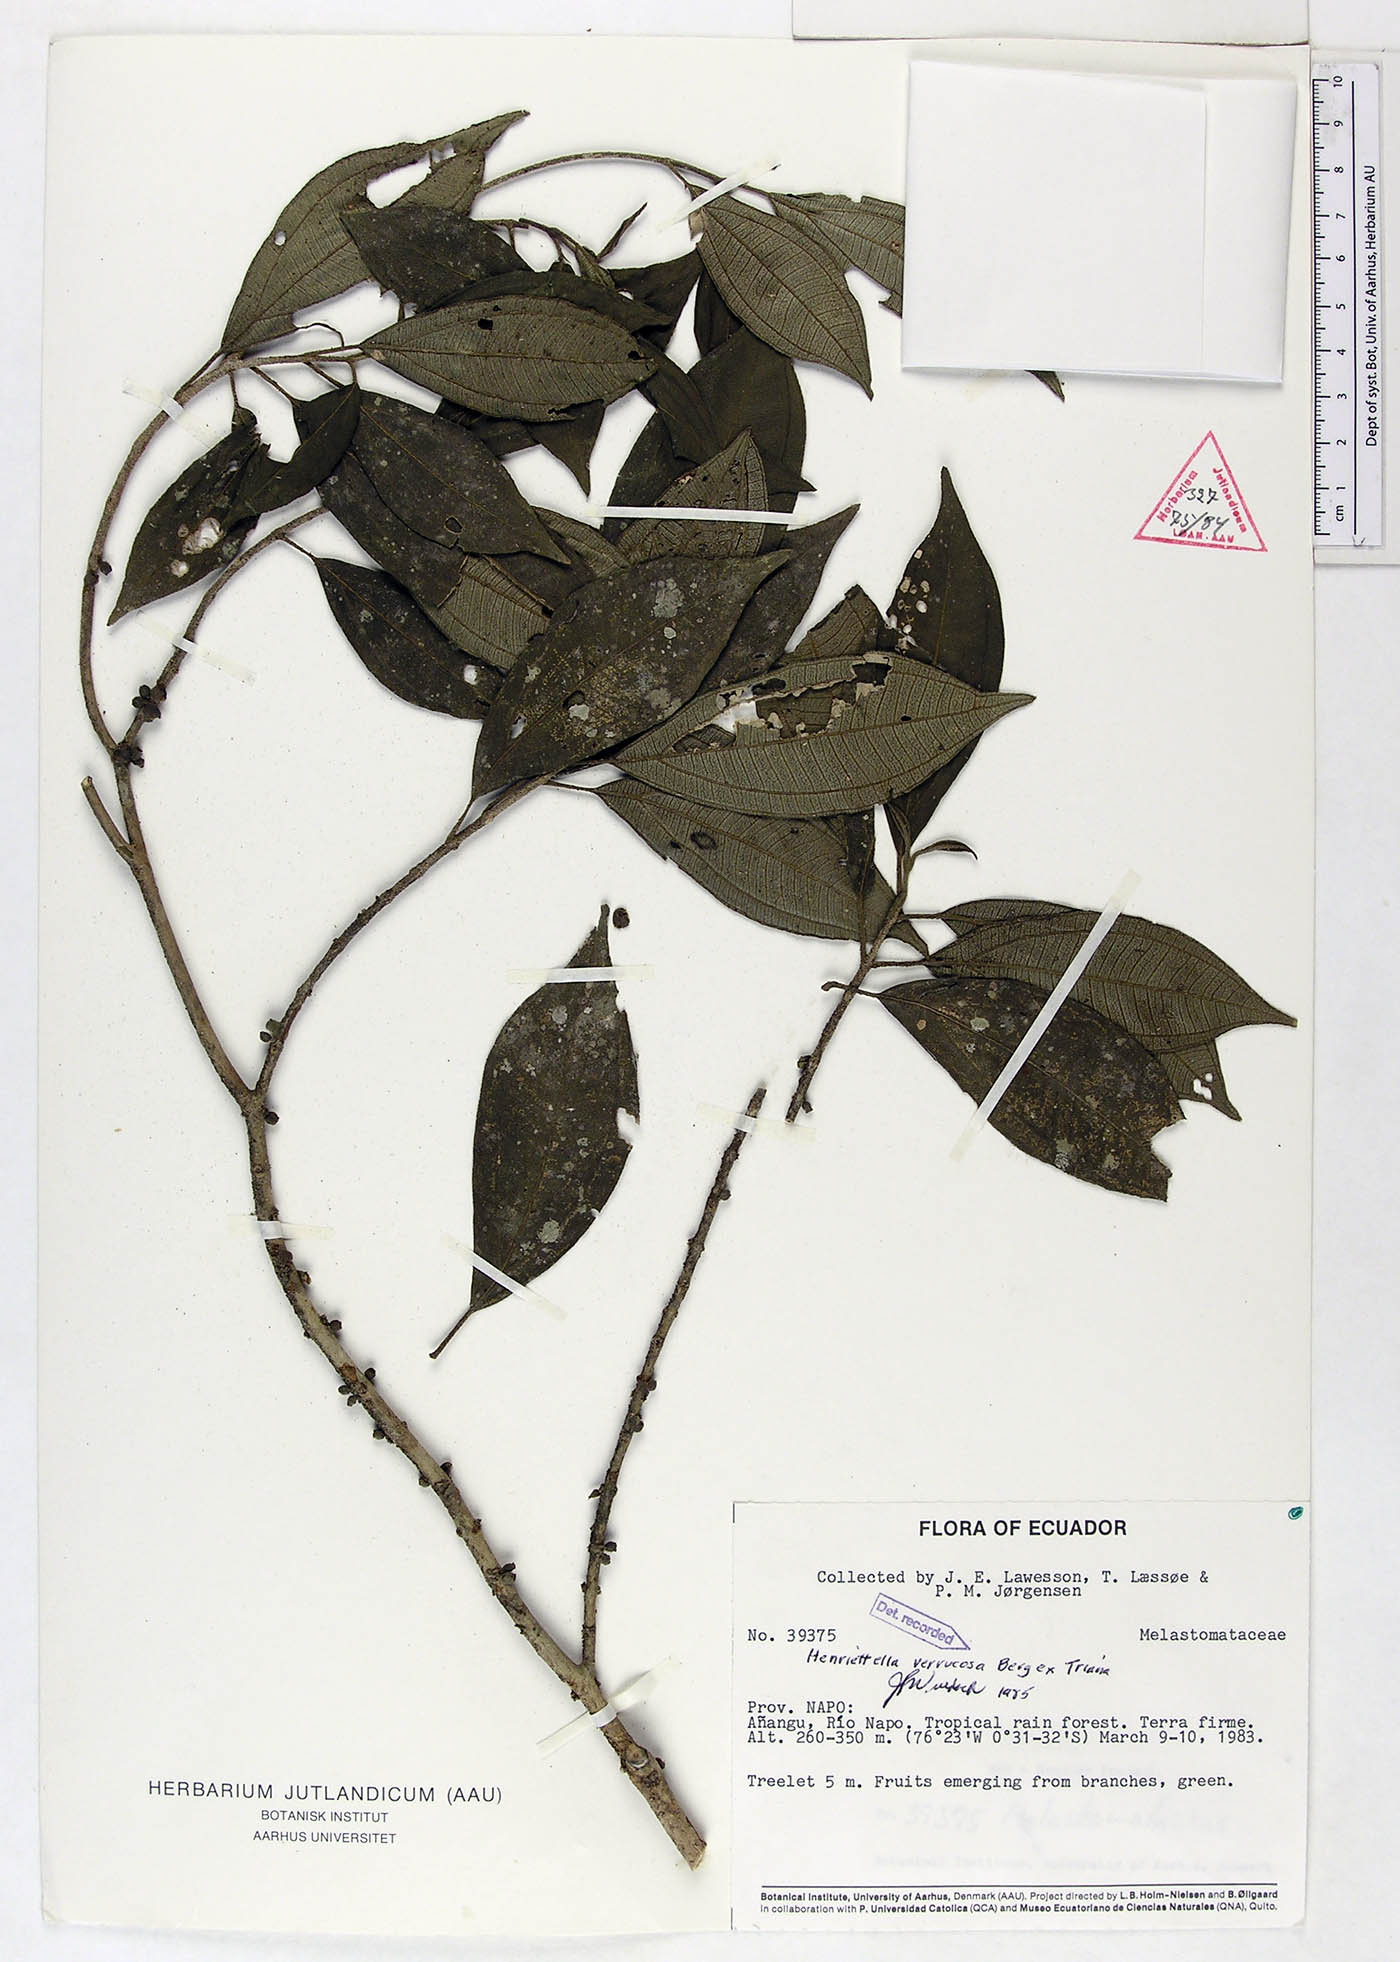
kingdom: Plantae
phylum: Tracheophyta
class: Magnoliopsida
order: Myrtales
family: Melastomataceae
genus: Henriettea
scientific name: Henriettea verrucosa
